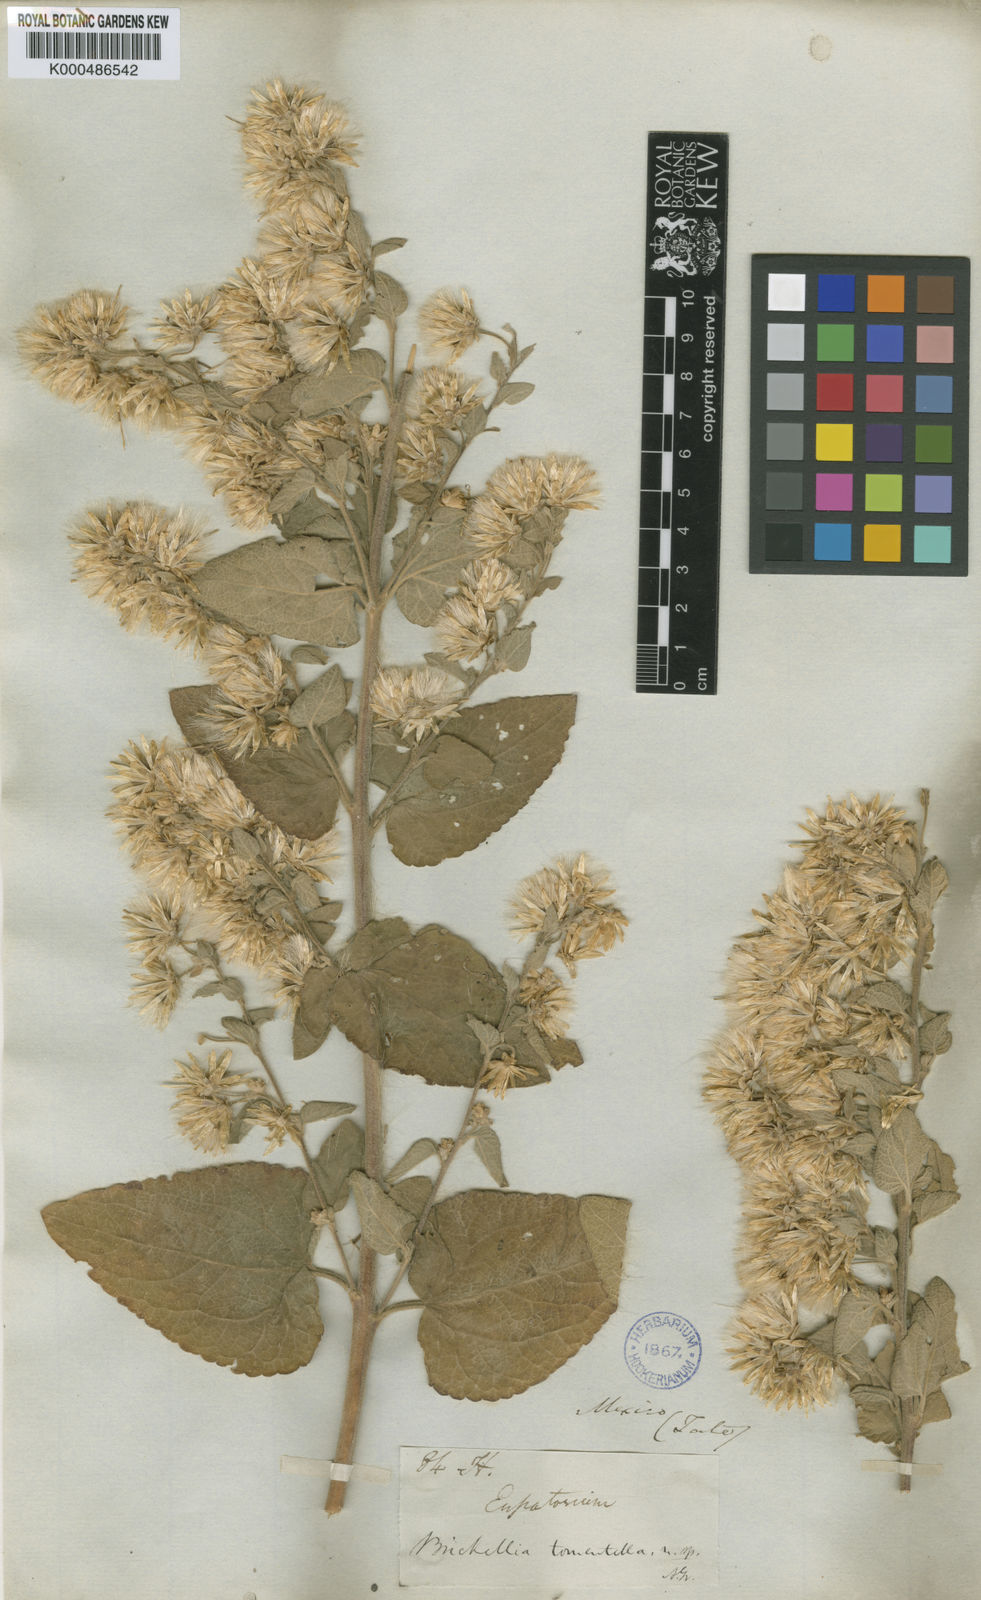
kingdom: Plantae
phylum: Tracheophyta
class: Magnoliopsida
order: Asterales
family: Asteraceae
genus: Brickellia
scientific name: Brickellia tomentella
